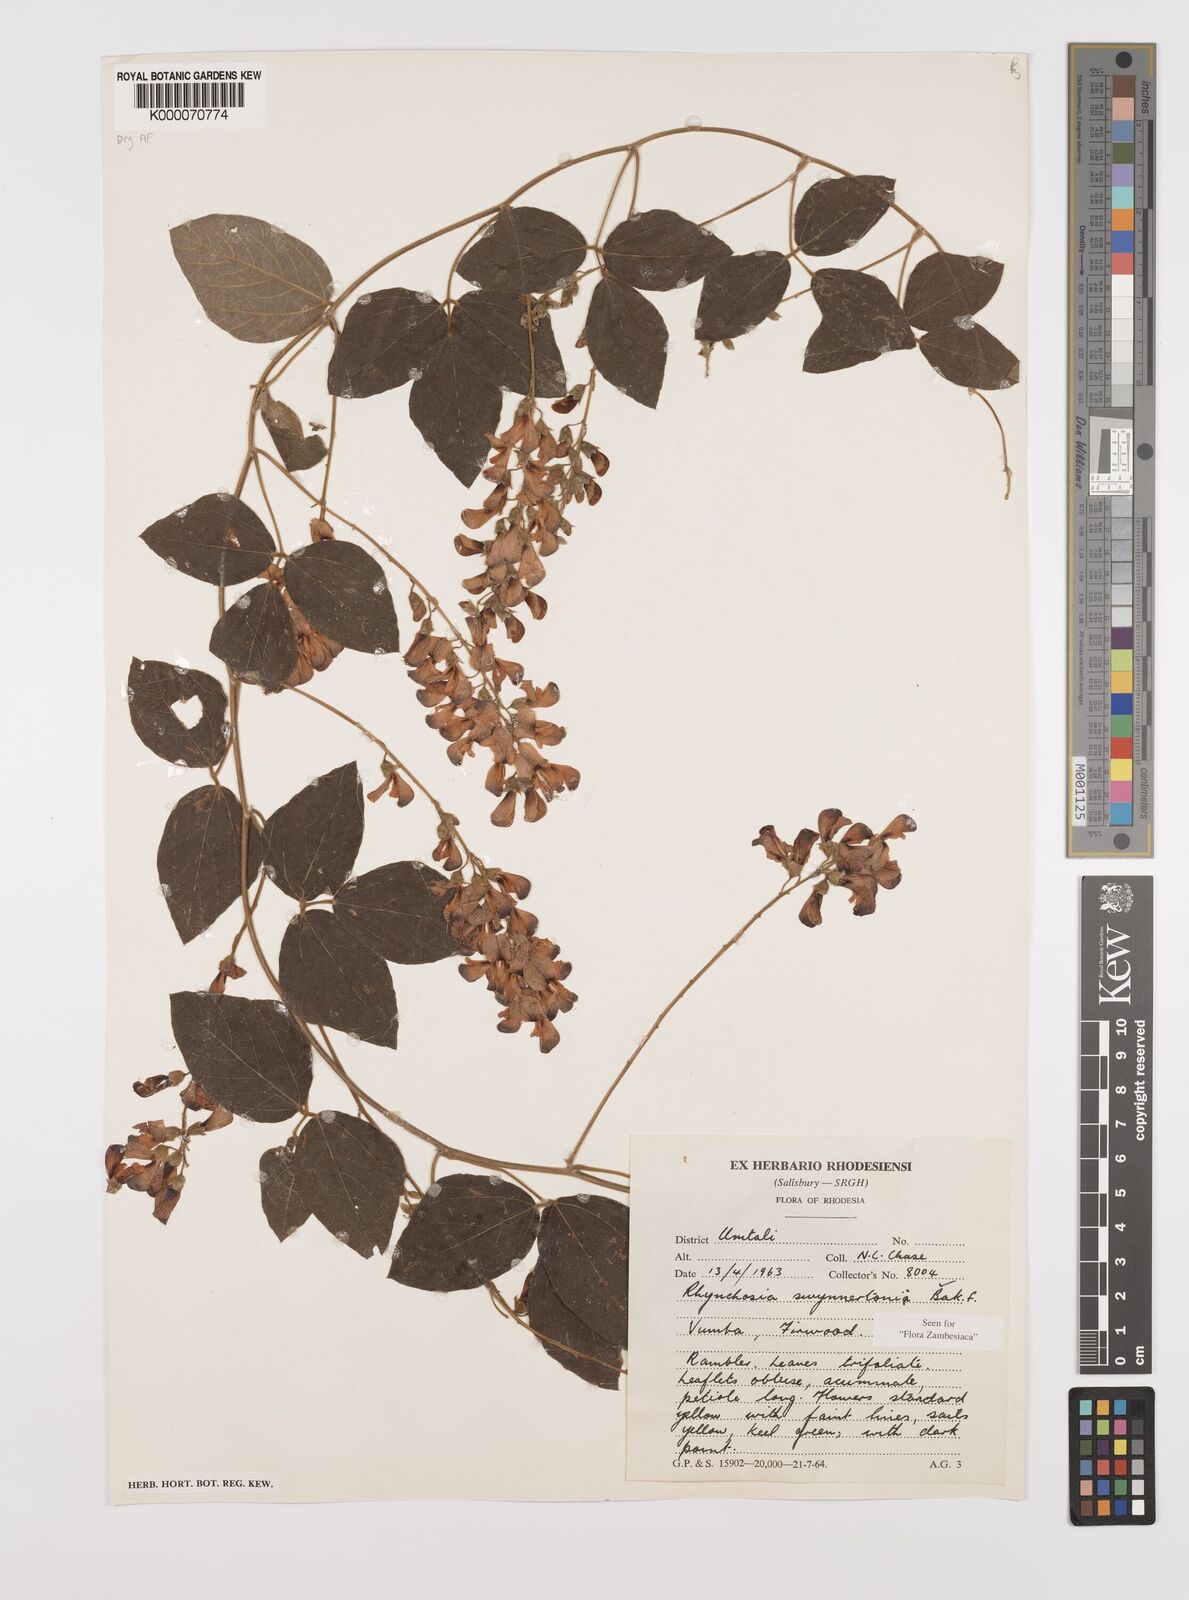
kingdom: Plantae
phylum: Tracheophyta
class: Magnoliopsida
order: Fabales
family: Fabaceae
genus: Rhynchosia
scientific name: Rhynchosia swynnertonii
